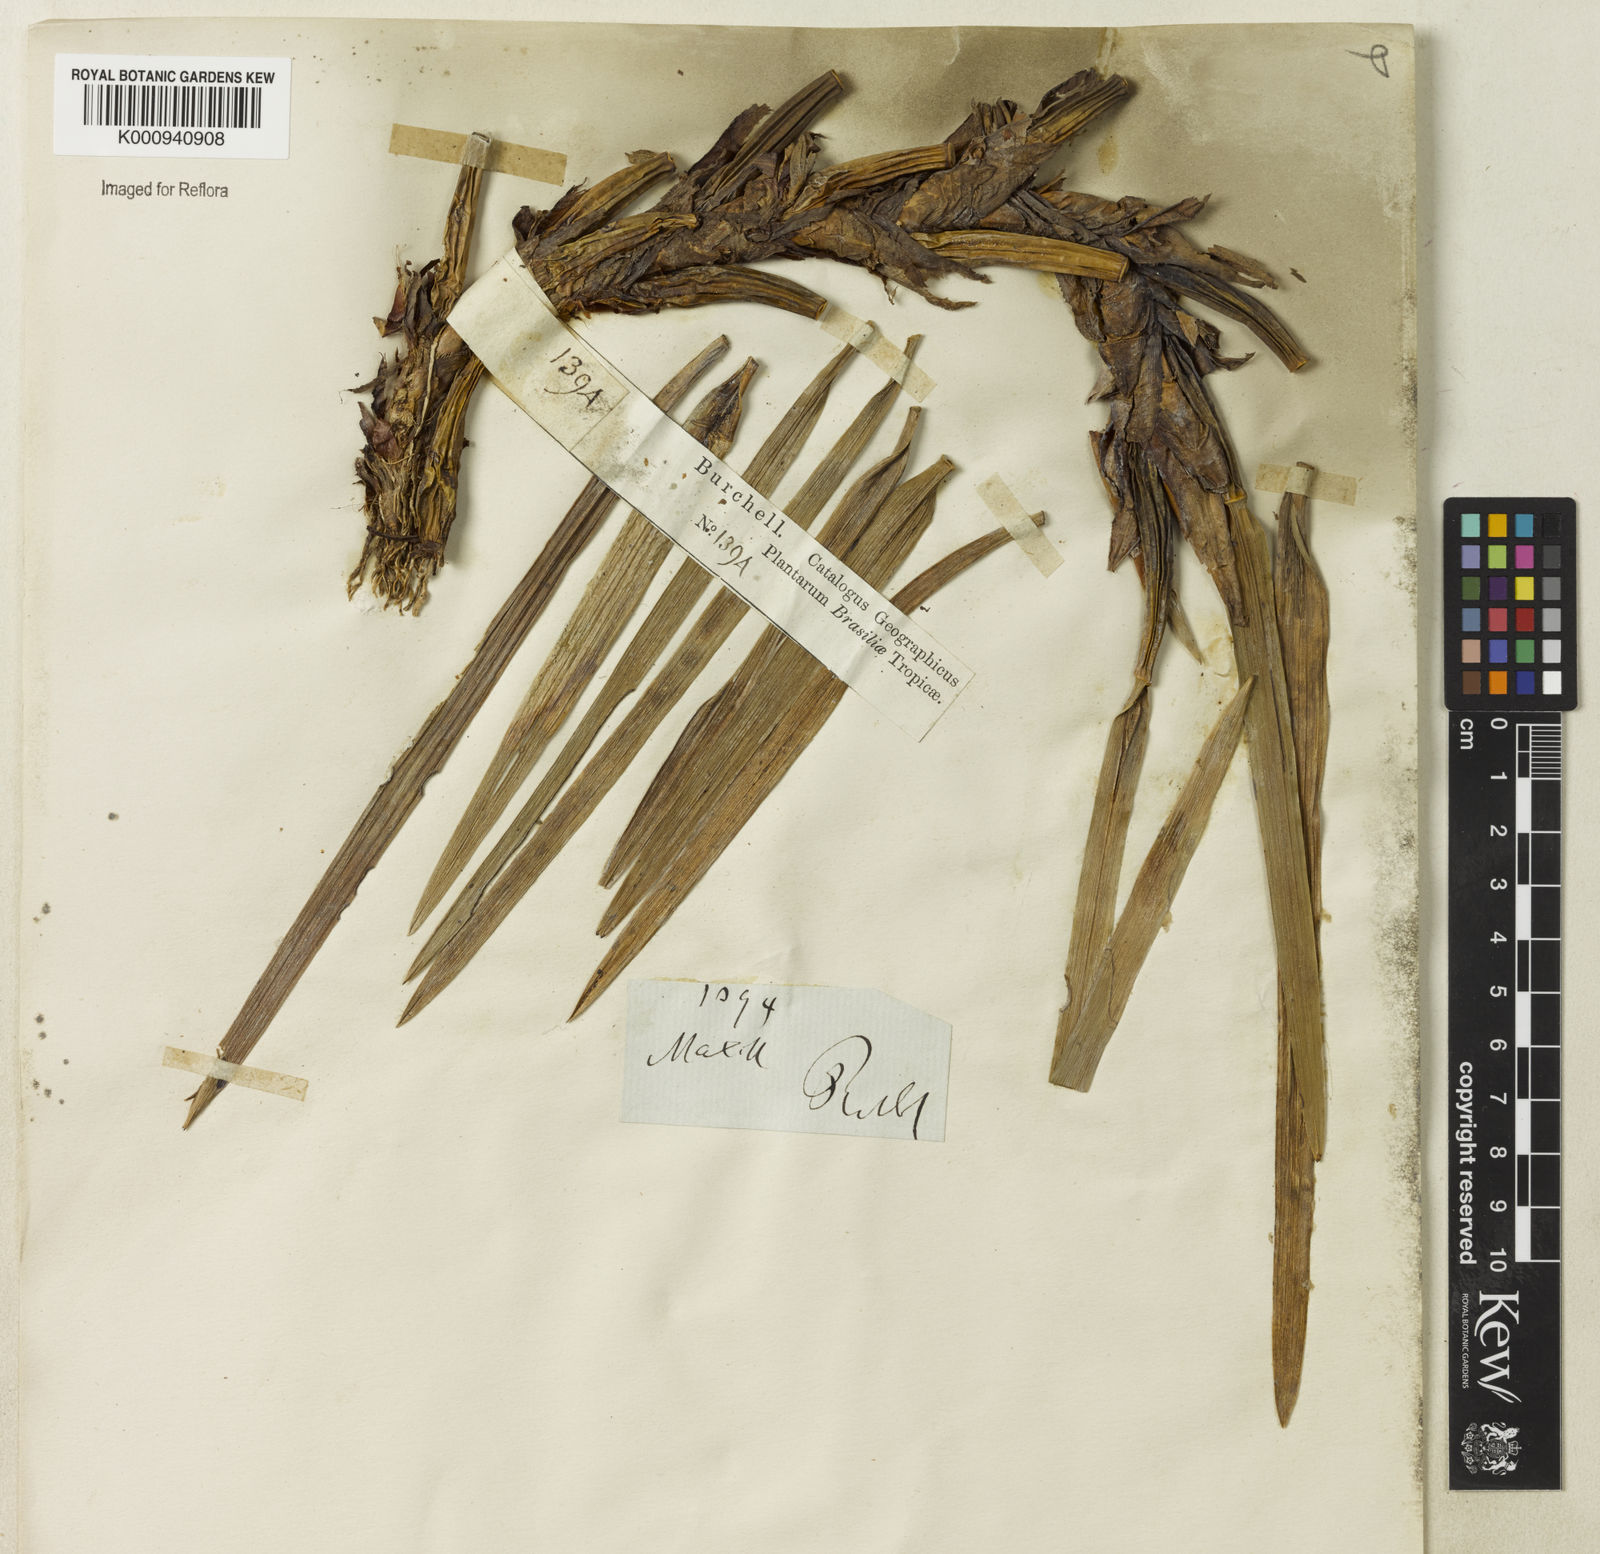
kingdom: Plantae
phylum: Tracheophyta
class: Liliopsida
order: Asparagales
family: Orchidaceae
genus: Maxillaria
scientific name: Maxillaria
